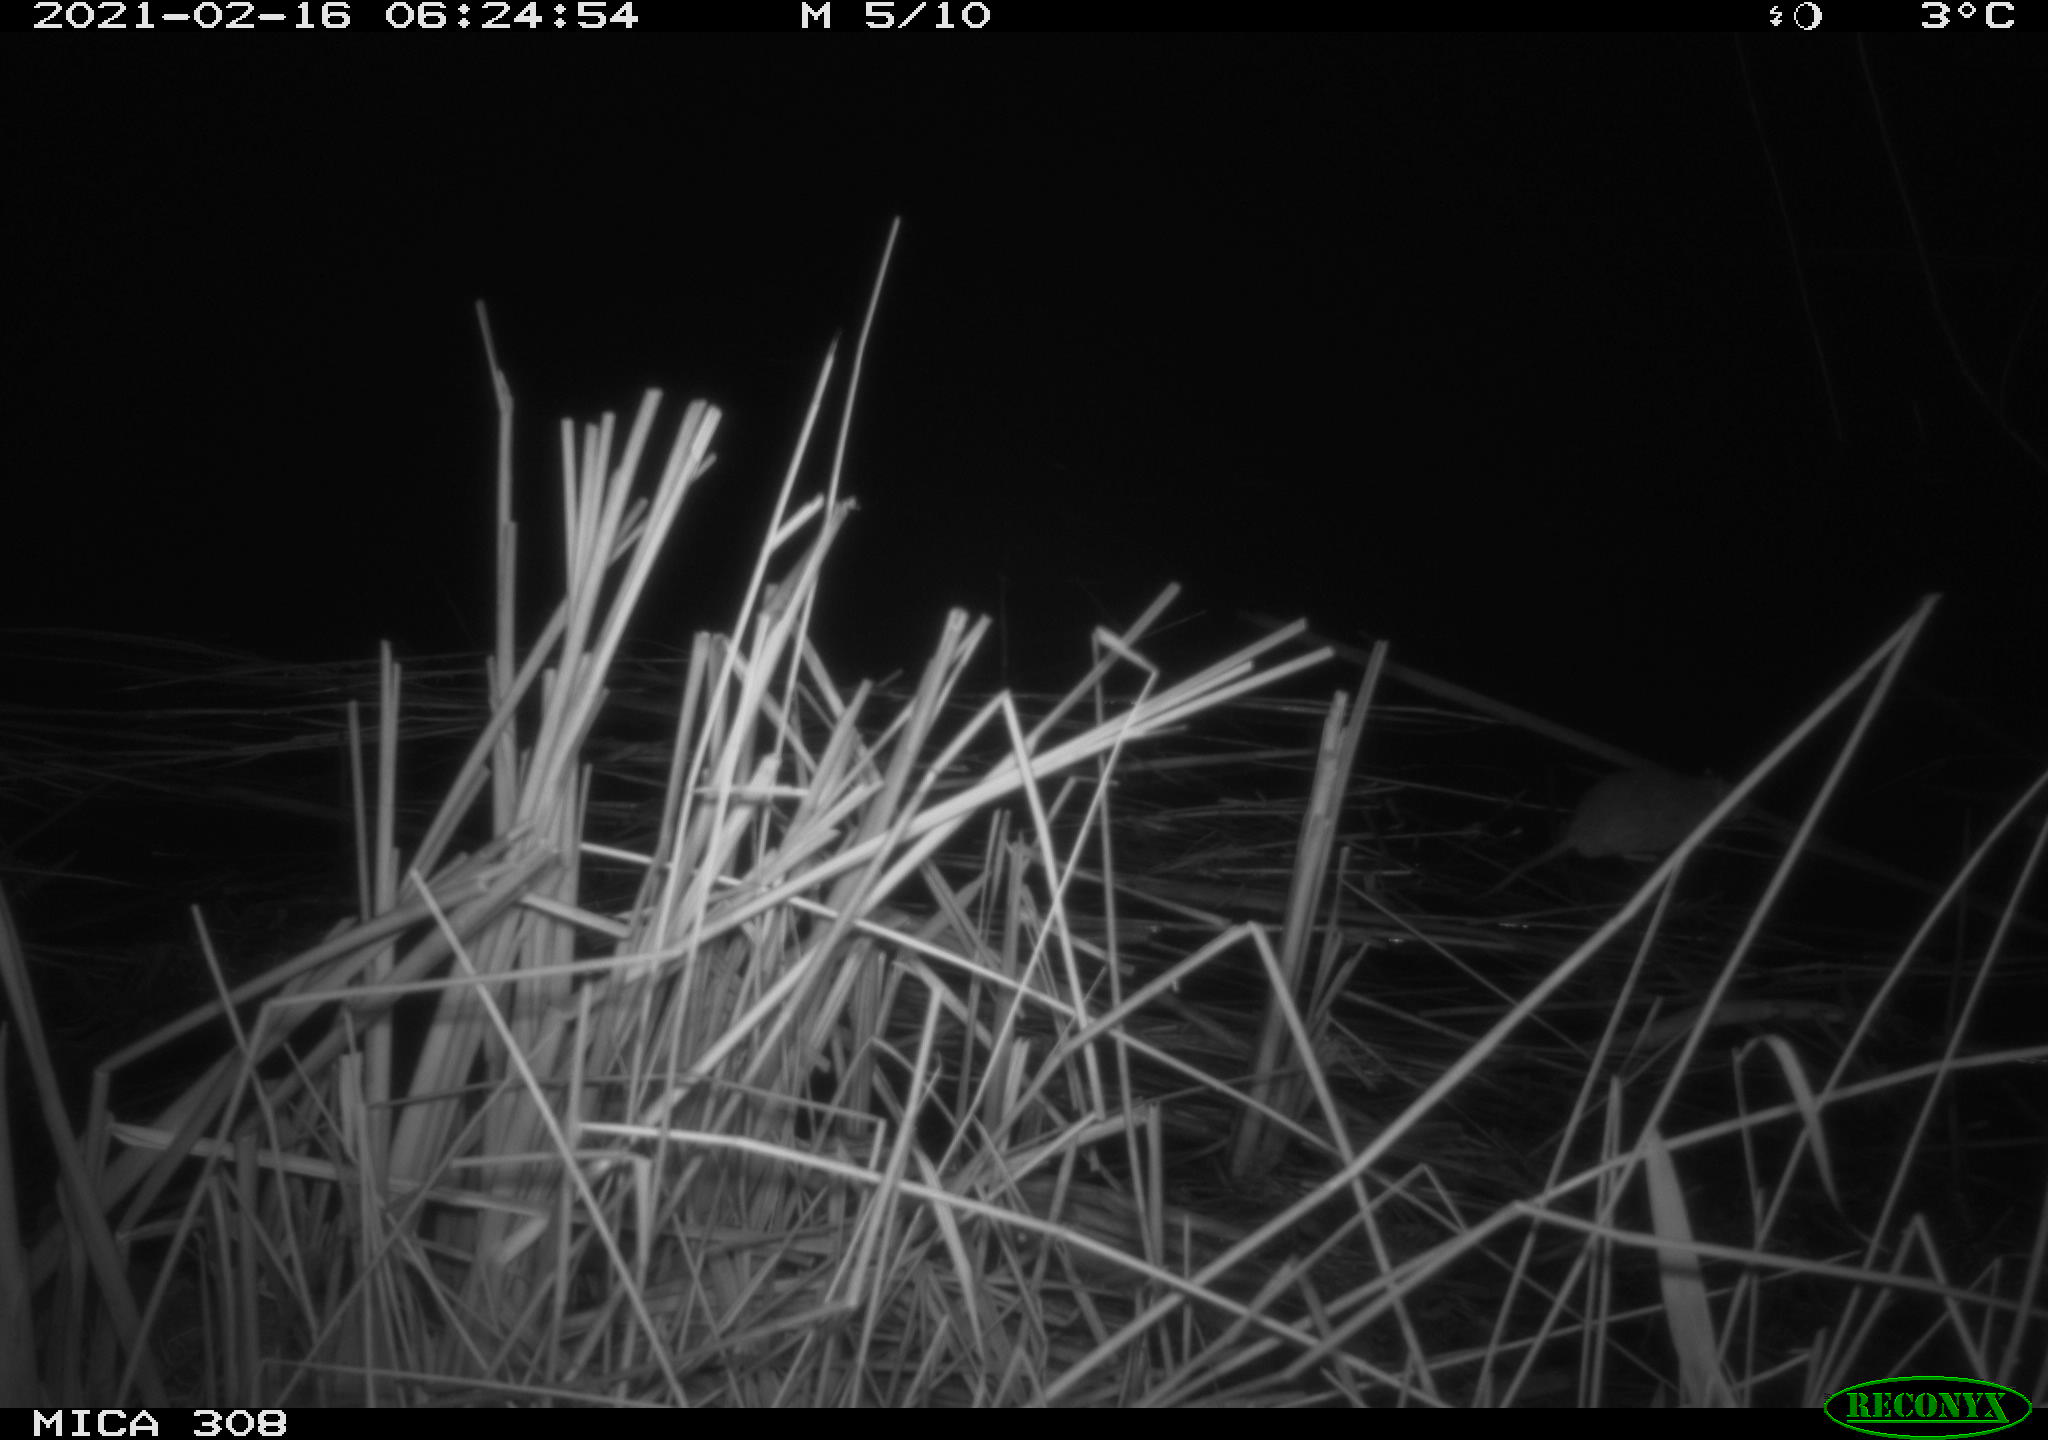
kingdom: Animalia
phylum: Chordata
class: Mammalia
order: Rodentia
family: Muridae
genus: Rattus
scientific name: Rattus norvegicus
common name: Brown rat
